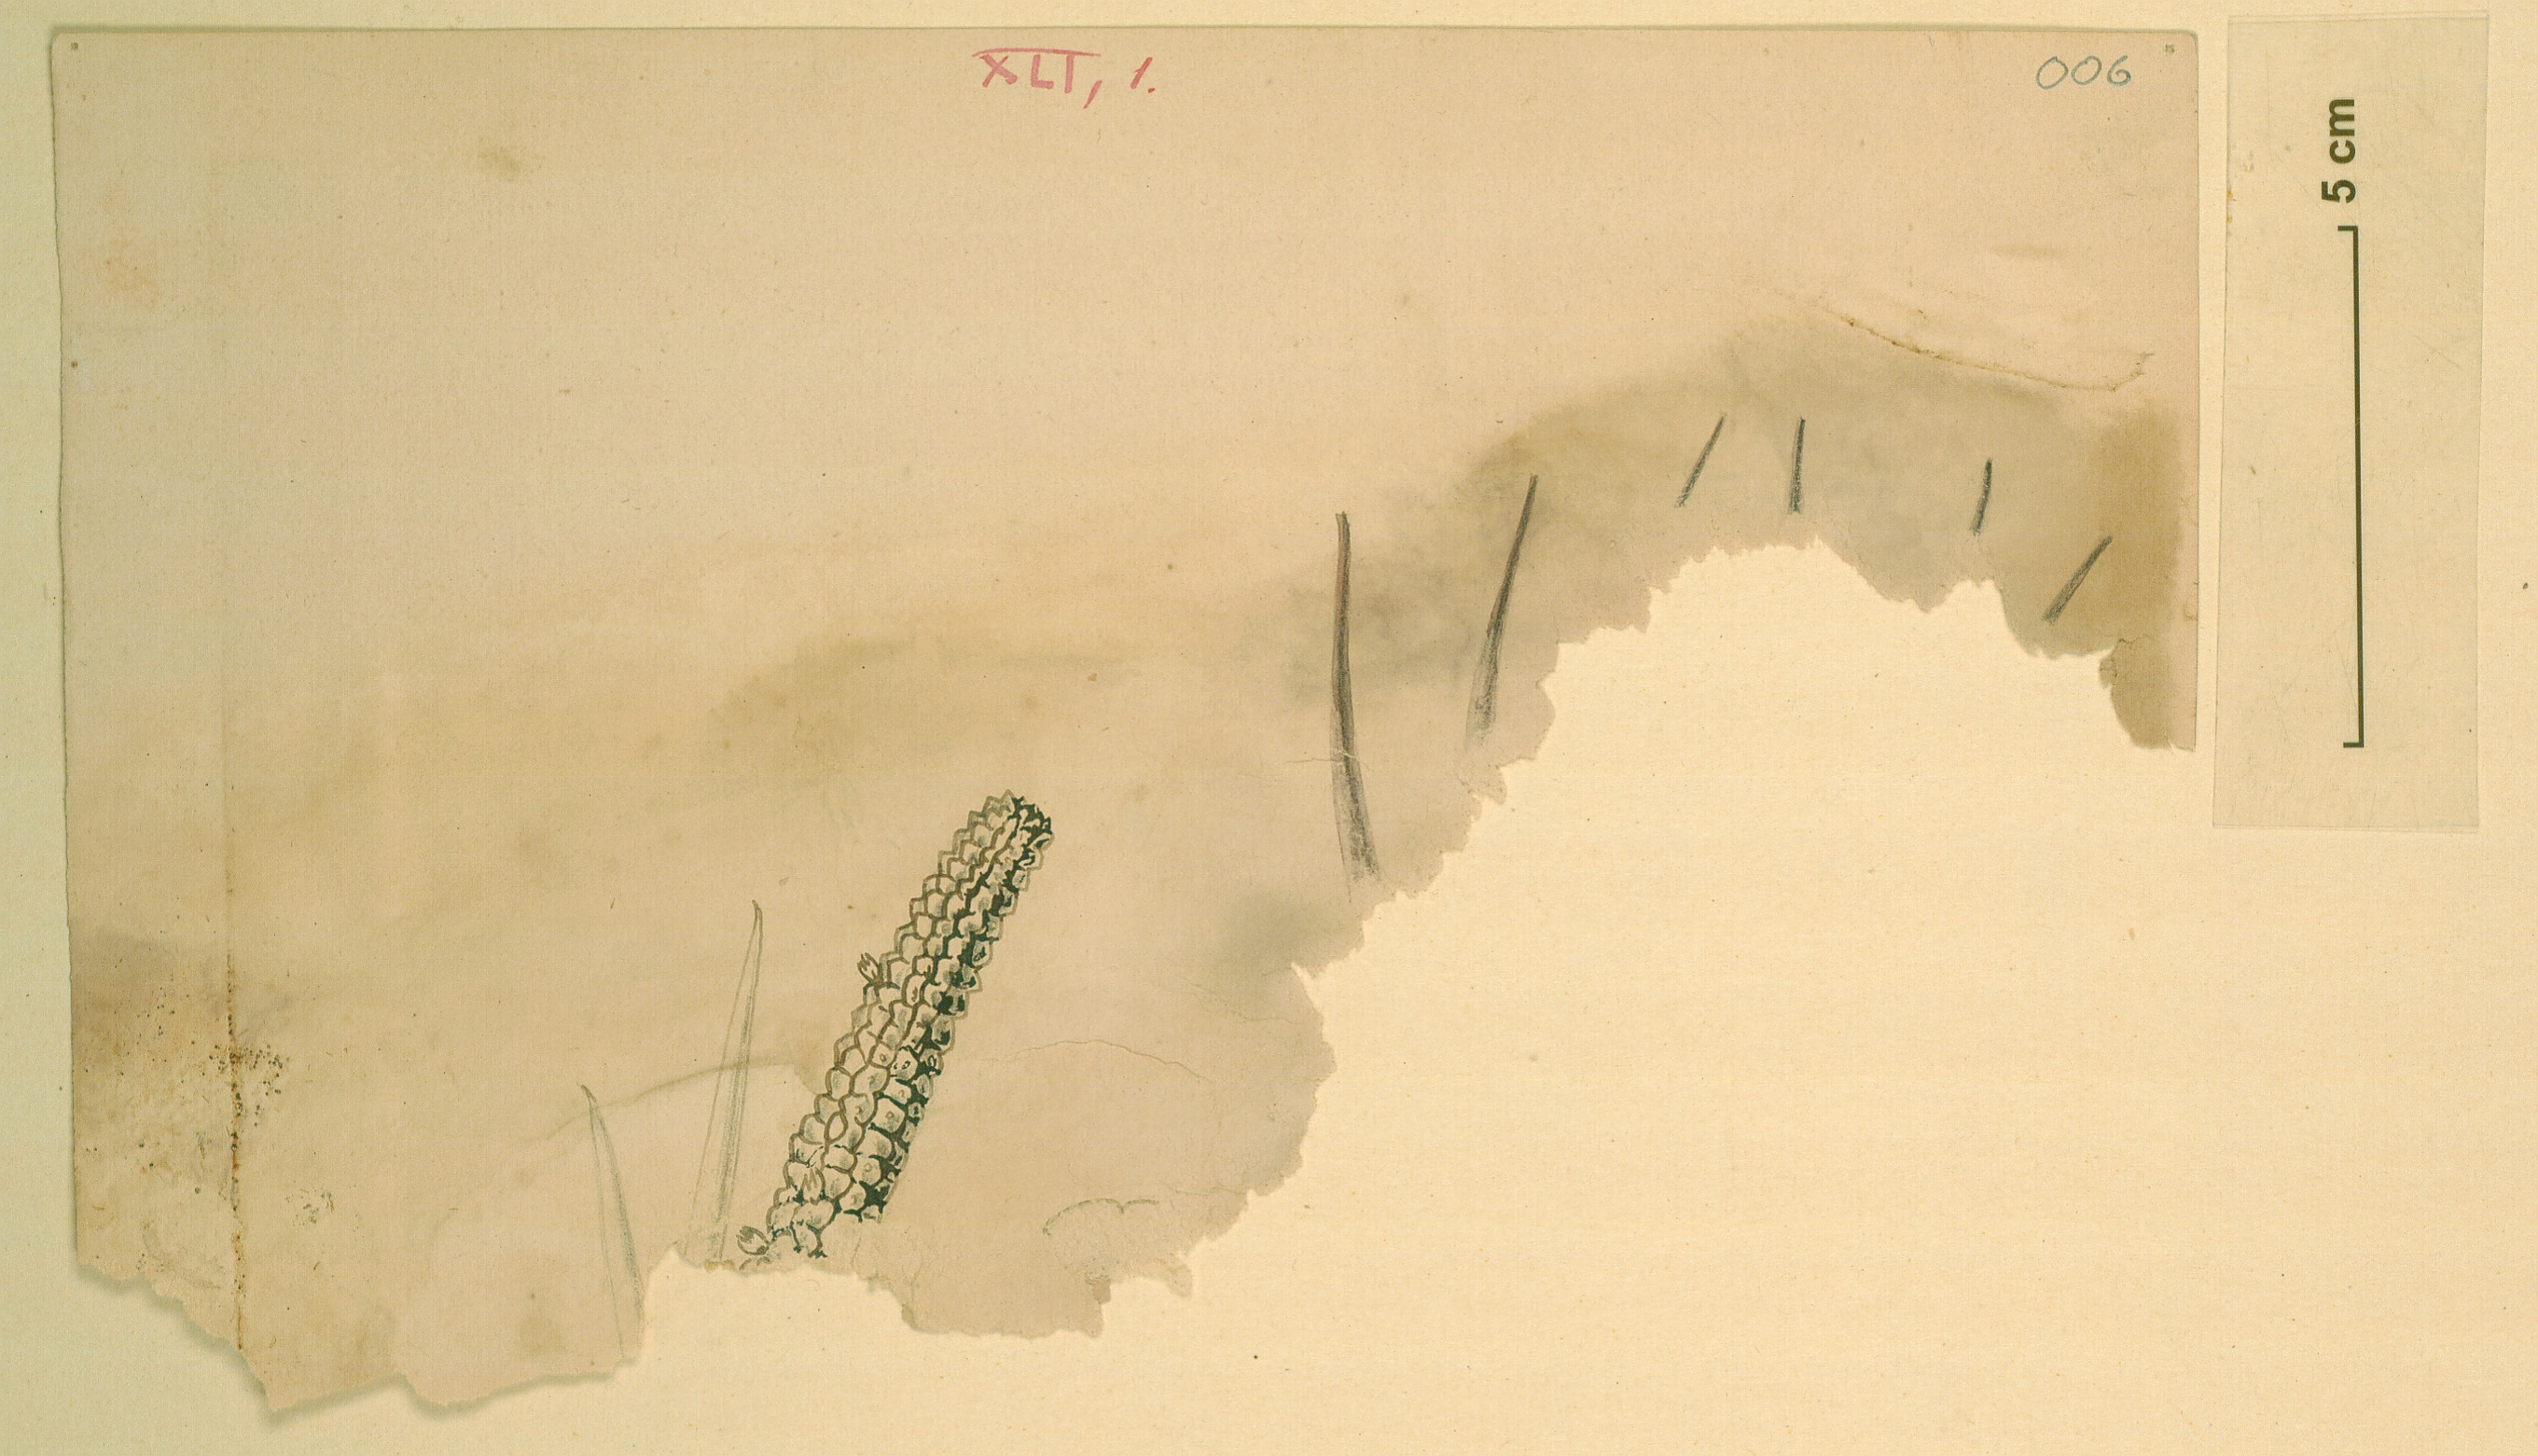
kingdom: Plantae
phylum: Tracheophyta
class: Magnoliopsida
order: Gentianales
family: Apocynaceae
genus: Ceropegia
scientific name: Ceropegia cereiformis
